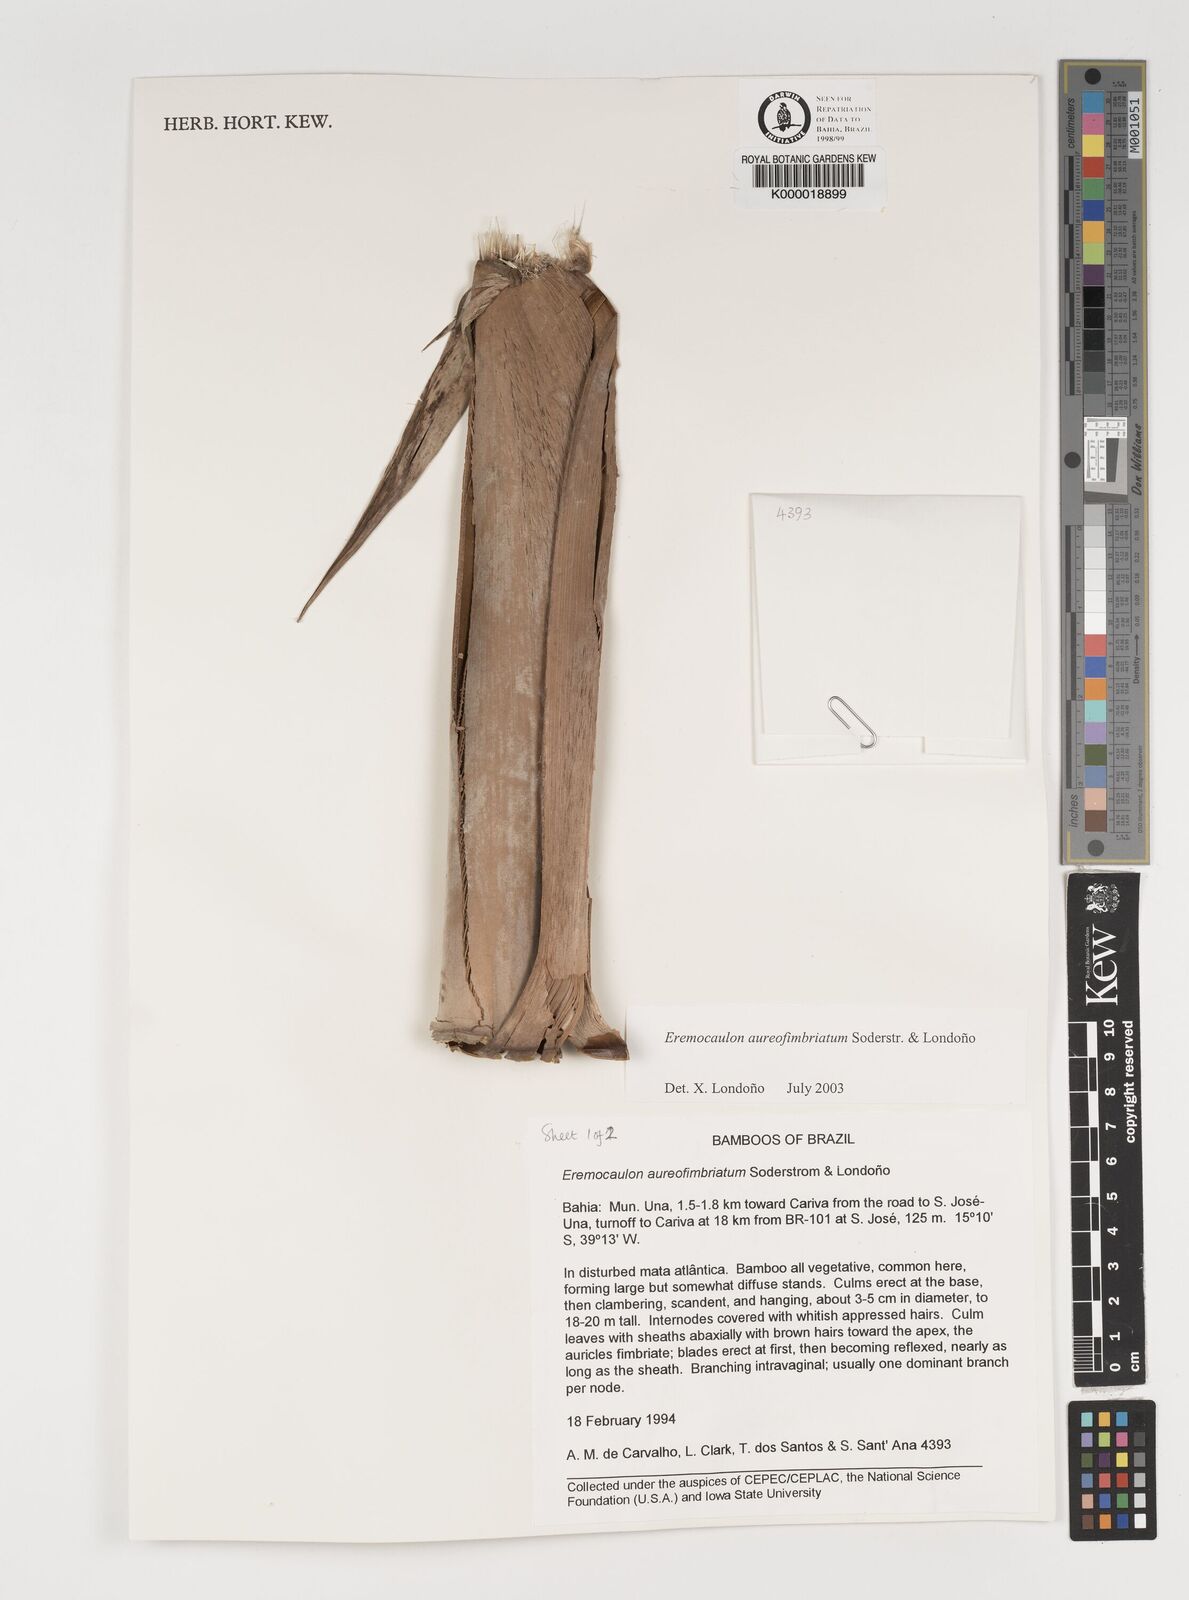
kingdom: Plantae
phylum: Tracheophyta
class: Liliopsida
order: Poales
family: Poaceae
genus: Eremocaulon
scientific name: Eremocaulon
